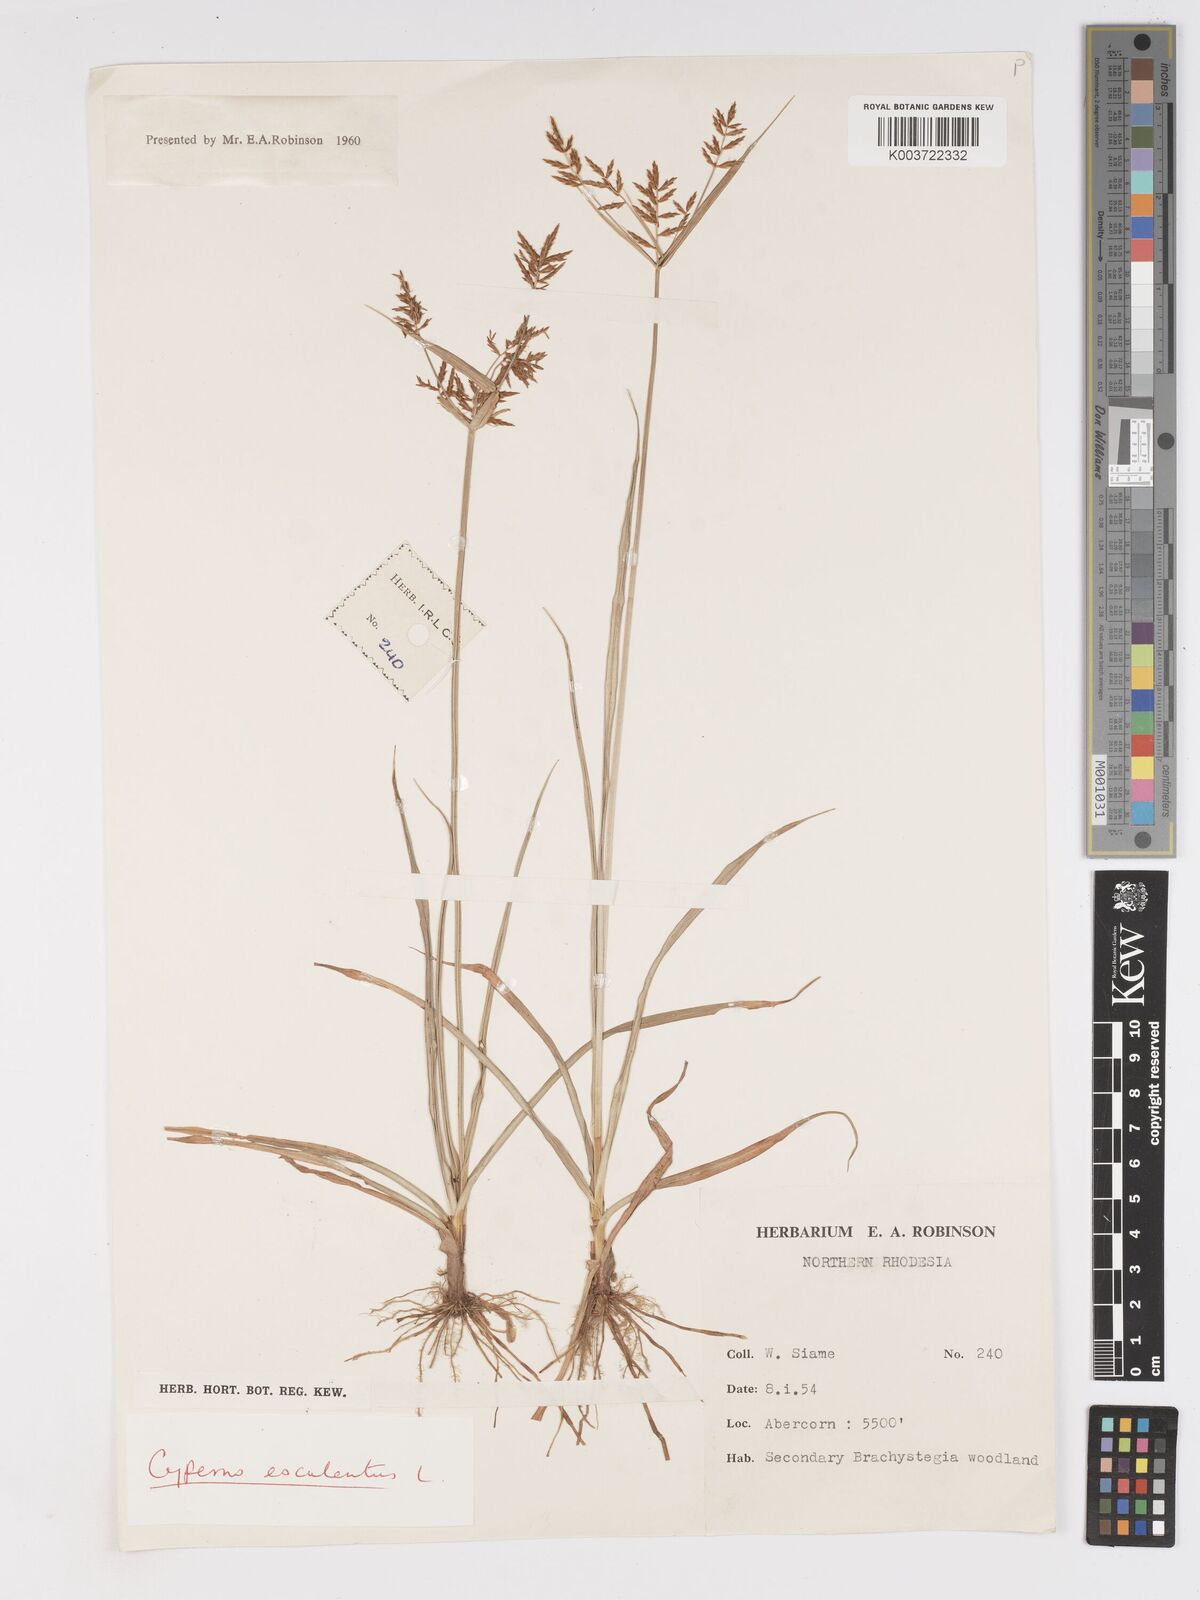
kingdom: Plantae
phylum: Tracheophyta
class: Liliopsida
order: Poales
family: Cyperaceae
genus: Cyperus
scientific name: Cyperus esculentus
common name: Yellow nutsedge
